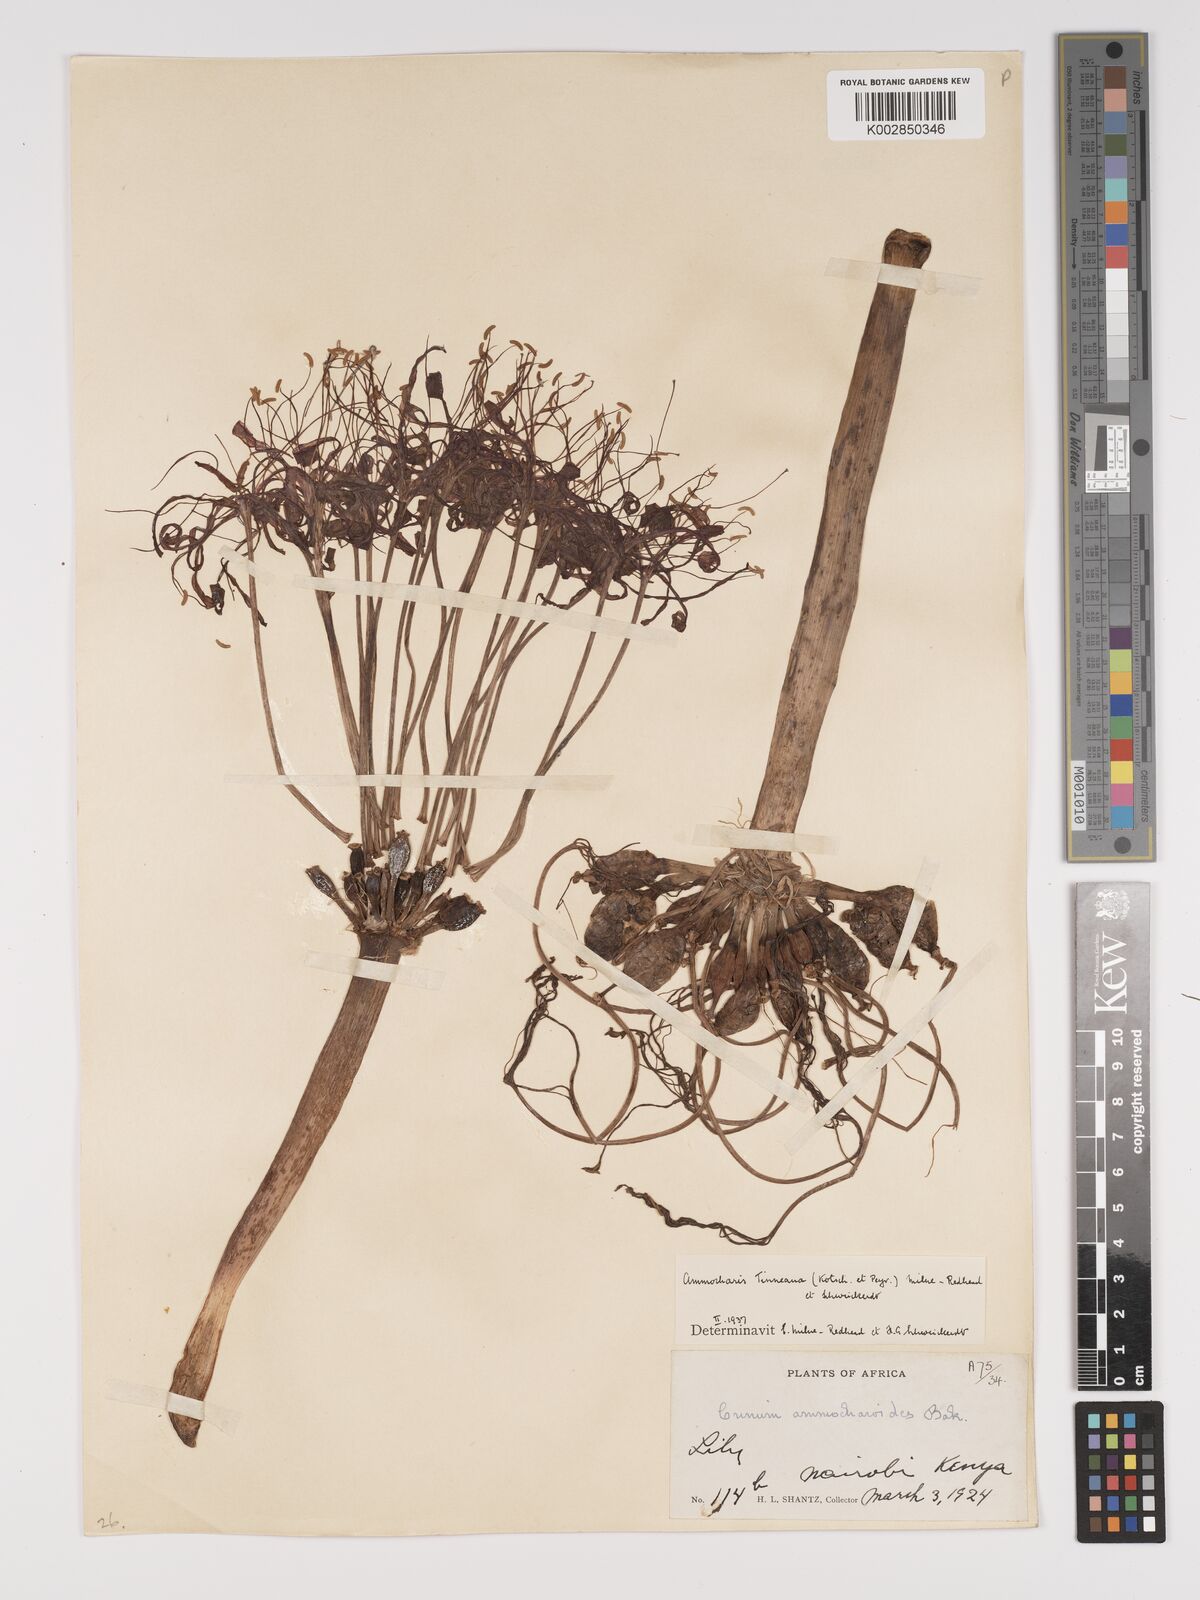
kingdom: Plantae
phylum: Tracheophyta
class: Liliopsida
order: Asparagales
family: Amaryllidaceae
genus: Ammocharis
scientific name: Ammocharis tinneana
